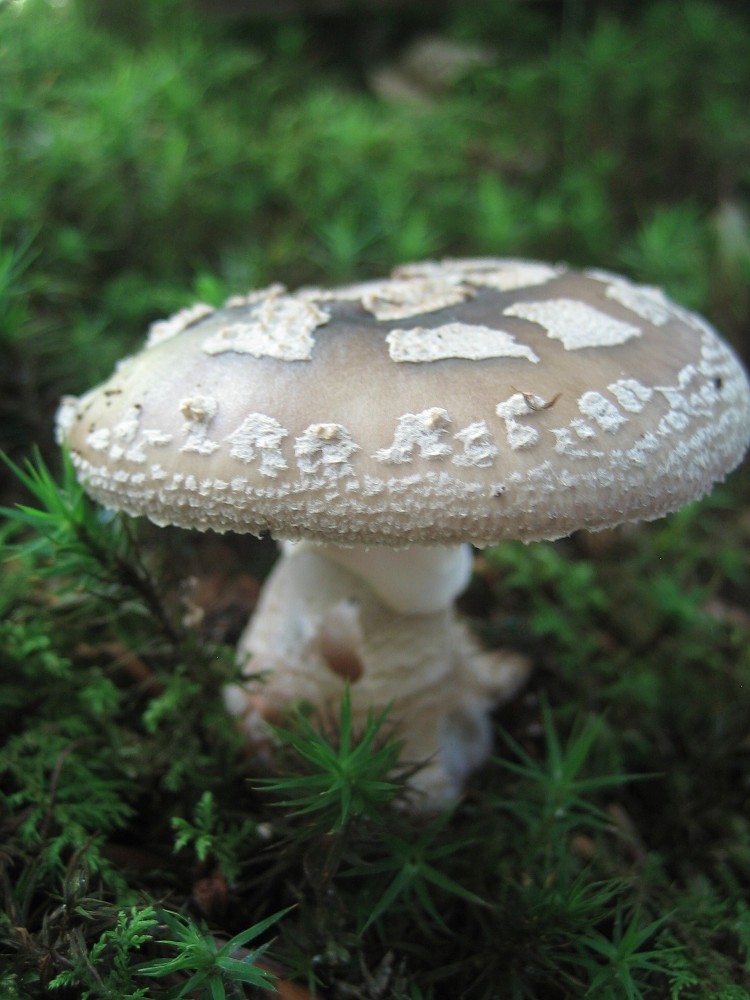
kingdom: Fungi
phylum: Basidiomycota
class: Agaricomycetes
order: Agaricales
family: Amanitaceae
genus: Amanita
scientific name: Amanita
